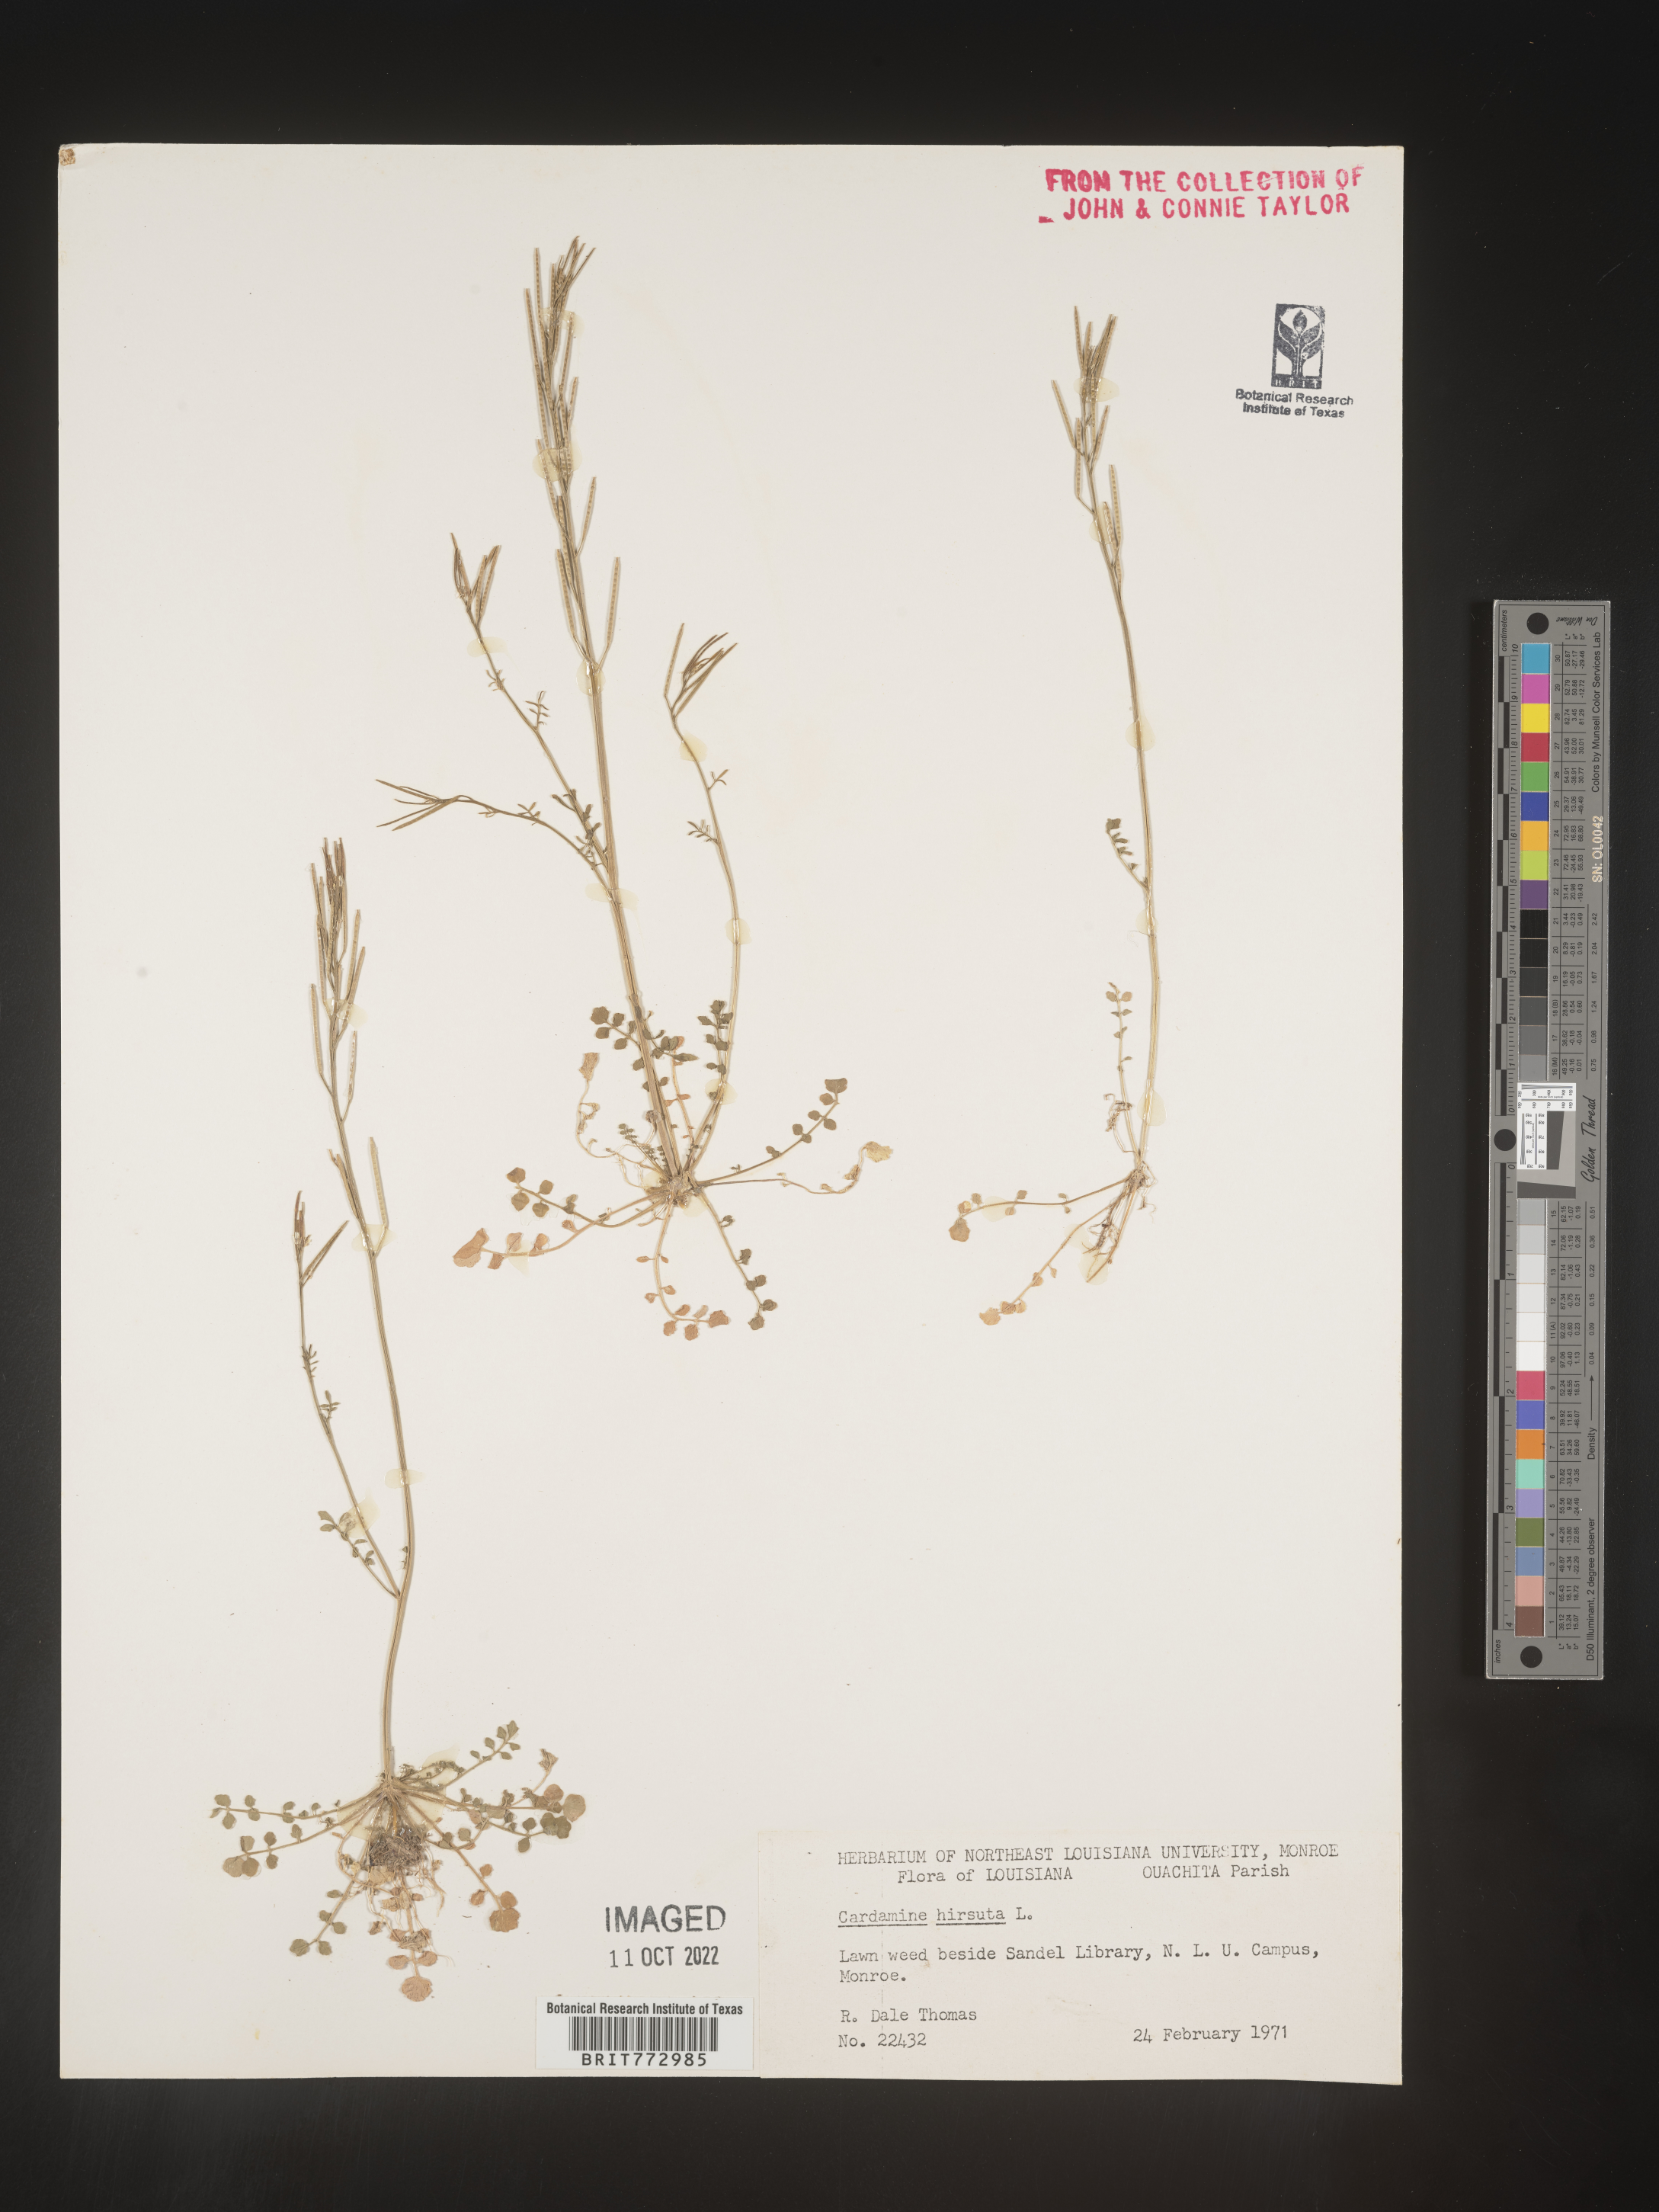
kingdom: Plantae
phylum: Tracheophyta
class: Magnoliopsida
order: Brassicales
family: Brassicaceae
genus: Cardamine
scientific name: Cardamine hirsuta
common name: Hairy bittercress
